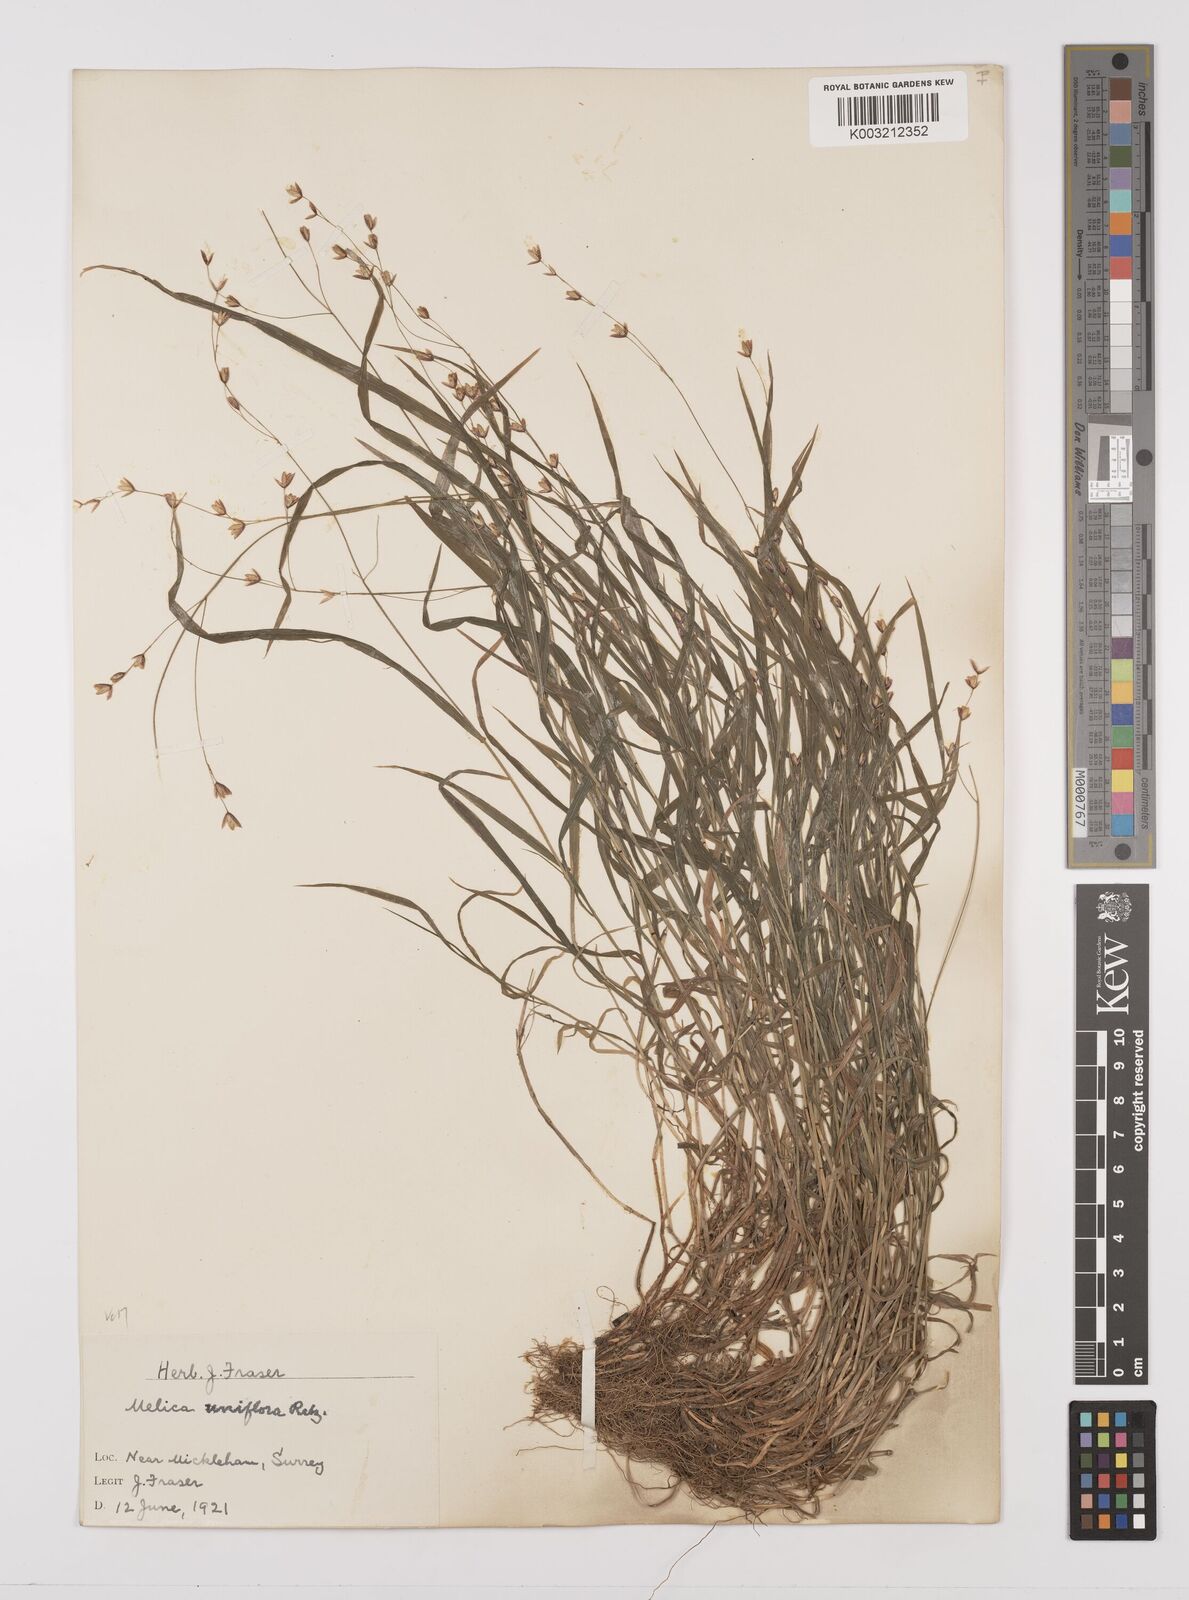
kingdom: Plantae
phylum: Tracheophyta
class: Liliopsida
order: Poales
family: Poaceae
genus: Melica
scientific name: Melica uniflora
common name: Wood melick
